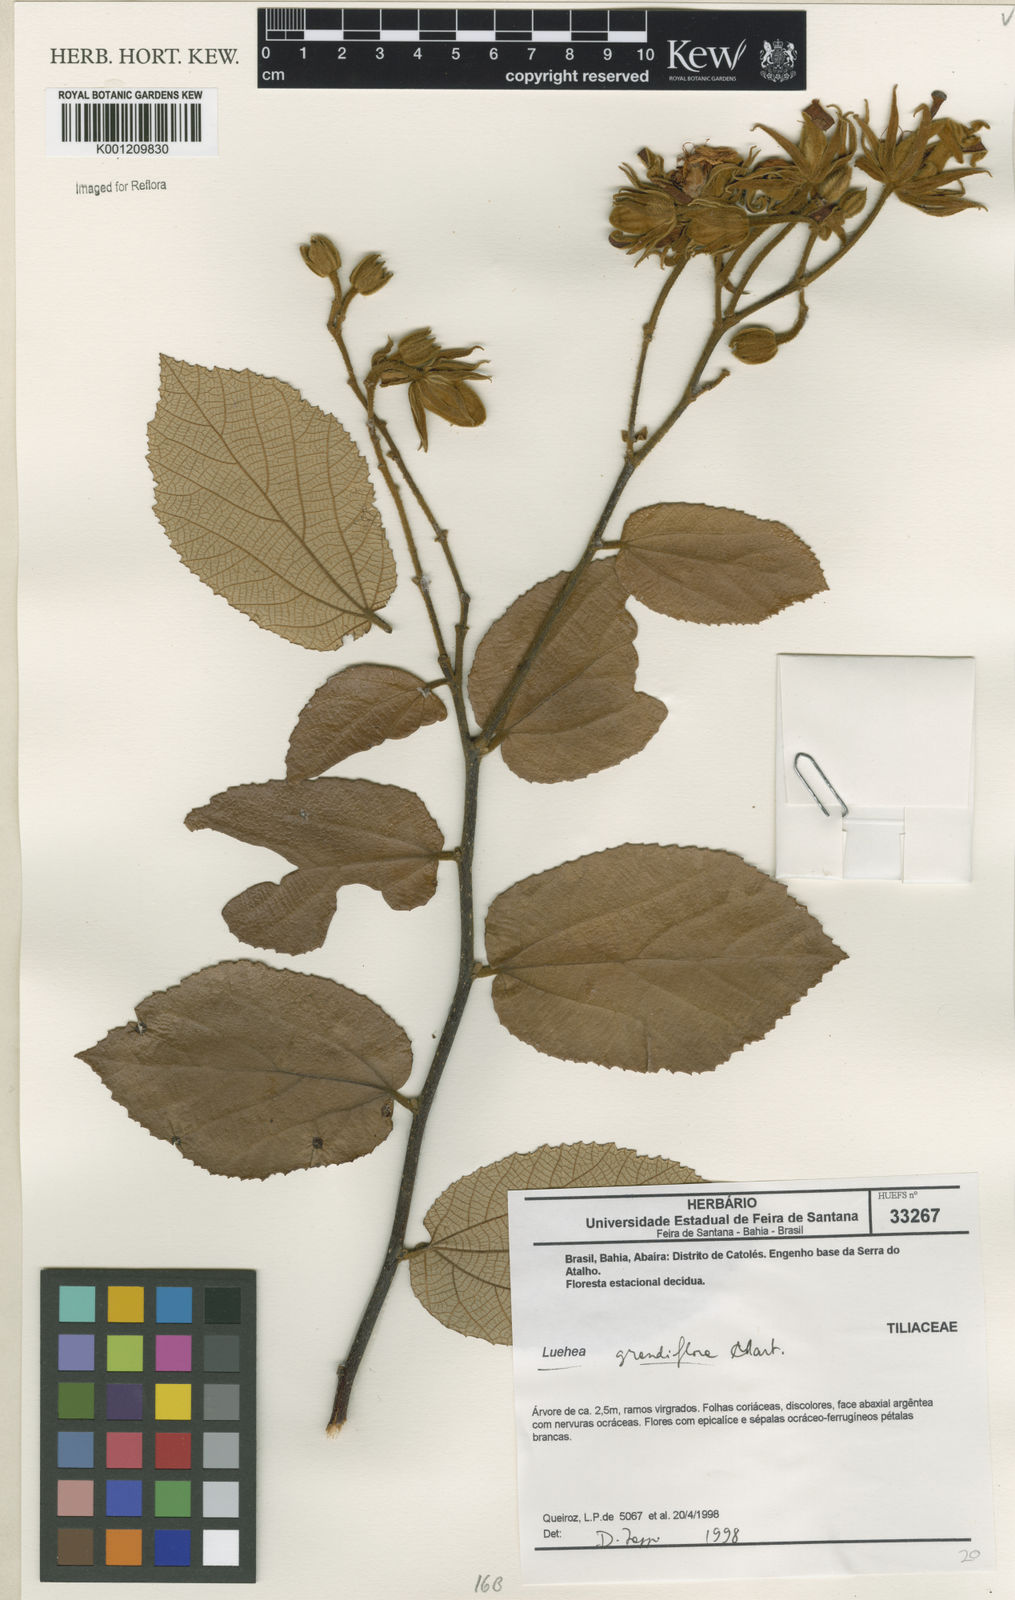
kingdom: Plantae
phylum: Tracheophyta
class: Magnoliopsida
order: Malvales
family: Malvaceae
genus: Luehea
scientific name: Luehea grandiflora
